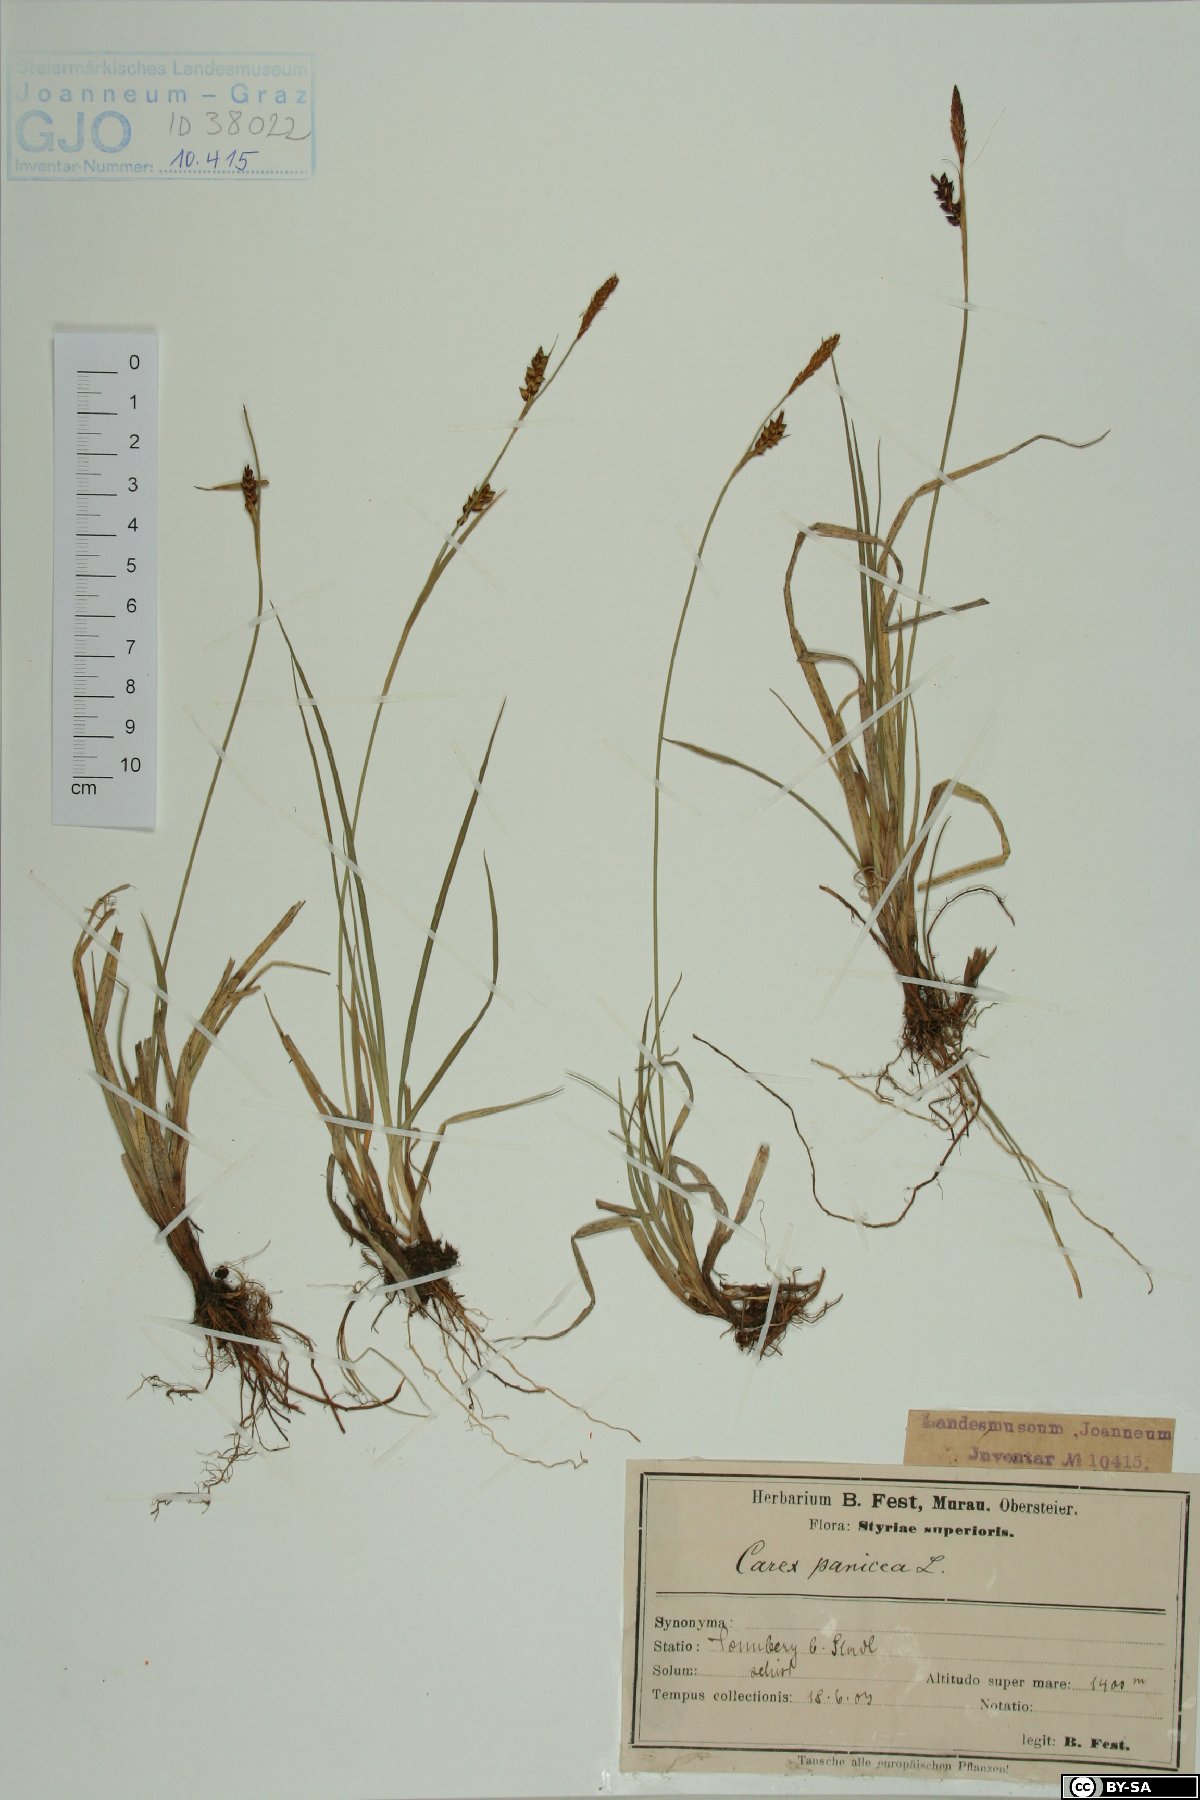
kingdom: Plantae
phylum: Tracheophyta
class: Liliopsida
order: Poales
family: Cyperaceae
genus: Carex
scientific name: Carex panicea
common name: Carnation sedge
